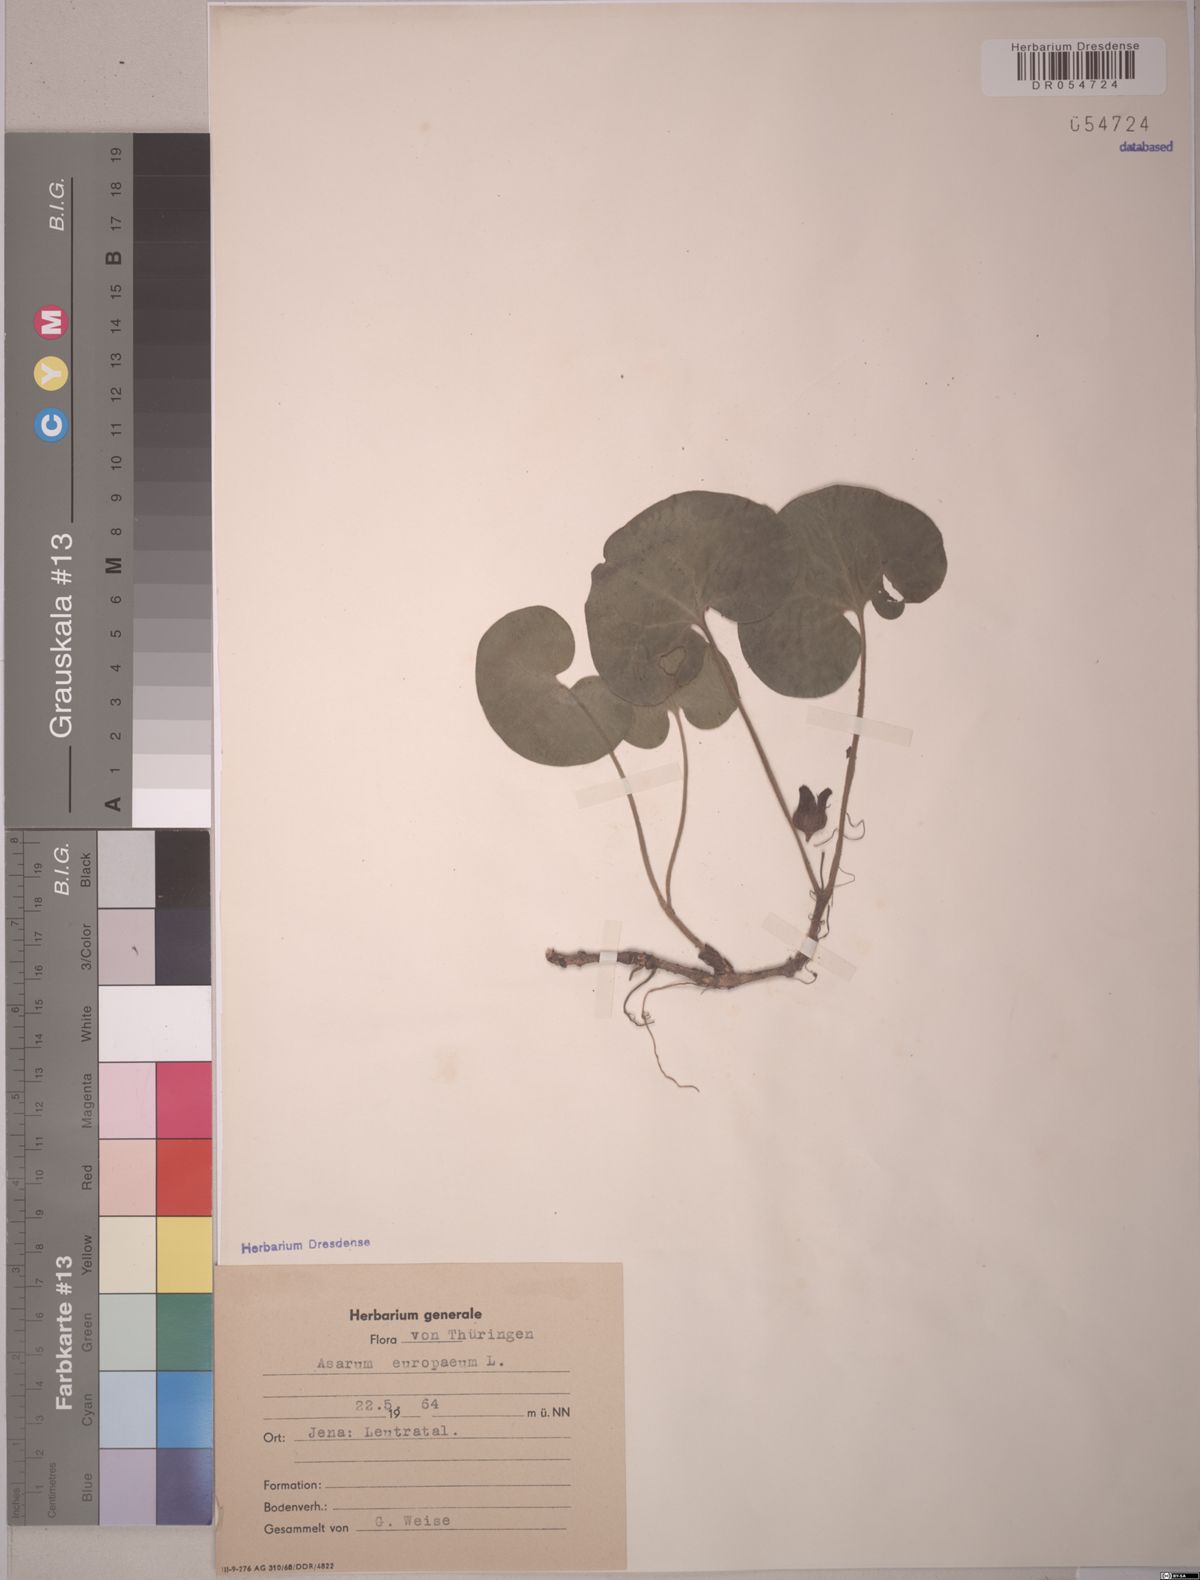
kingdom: Plantae
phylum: Tracheophyta
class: Magnoliopsida
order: Piperales
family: Aristolochiaceae
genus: Asarum
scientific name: Asarum europaeum
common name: Asarabacca
